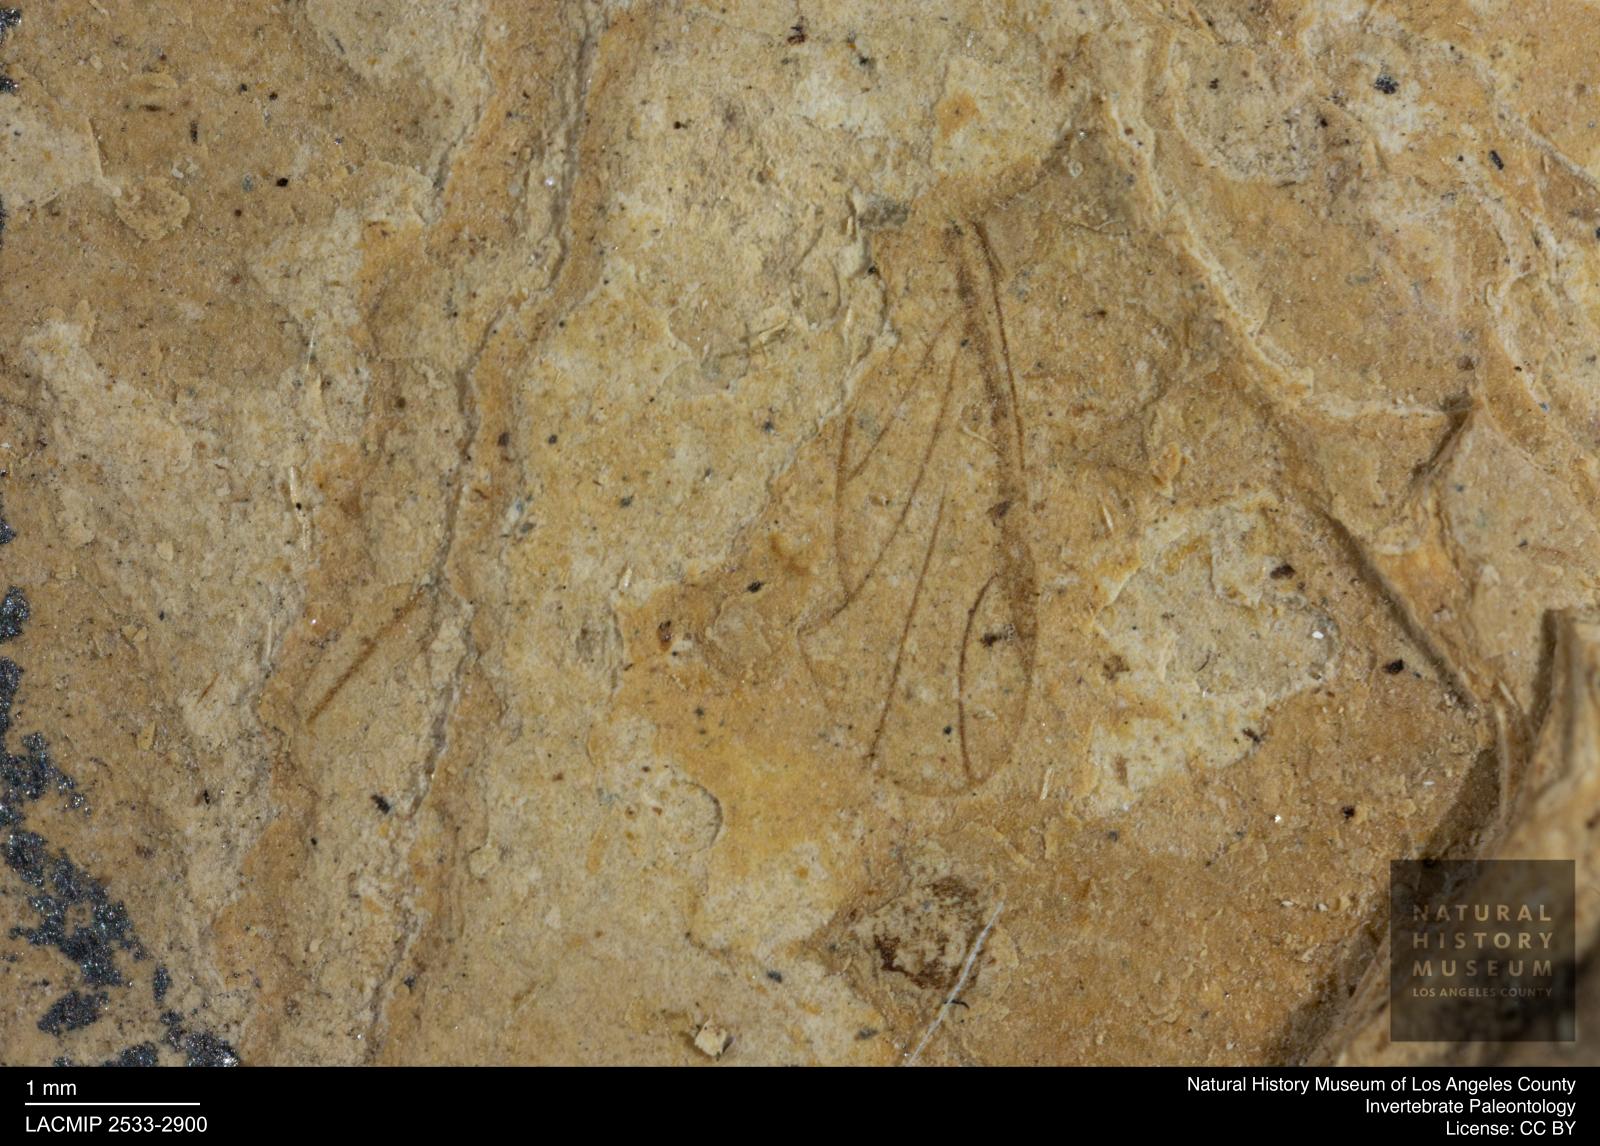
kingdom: Animalia
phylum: Arthropoda
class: Insecta
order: Hemiptera
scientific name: Hemiptera
